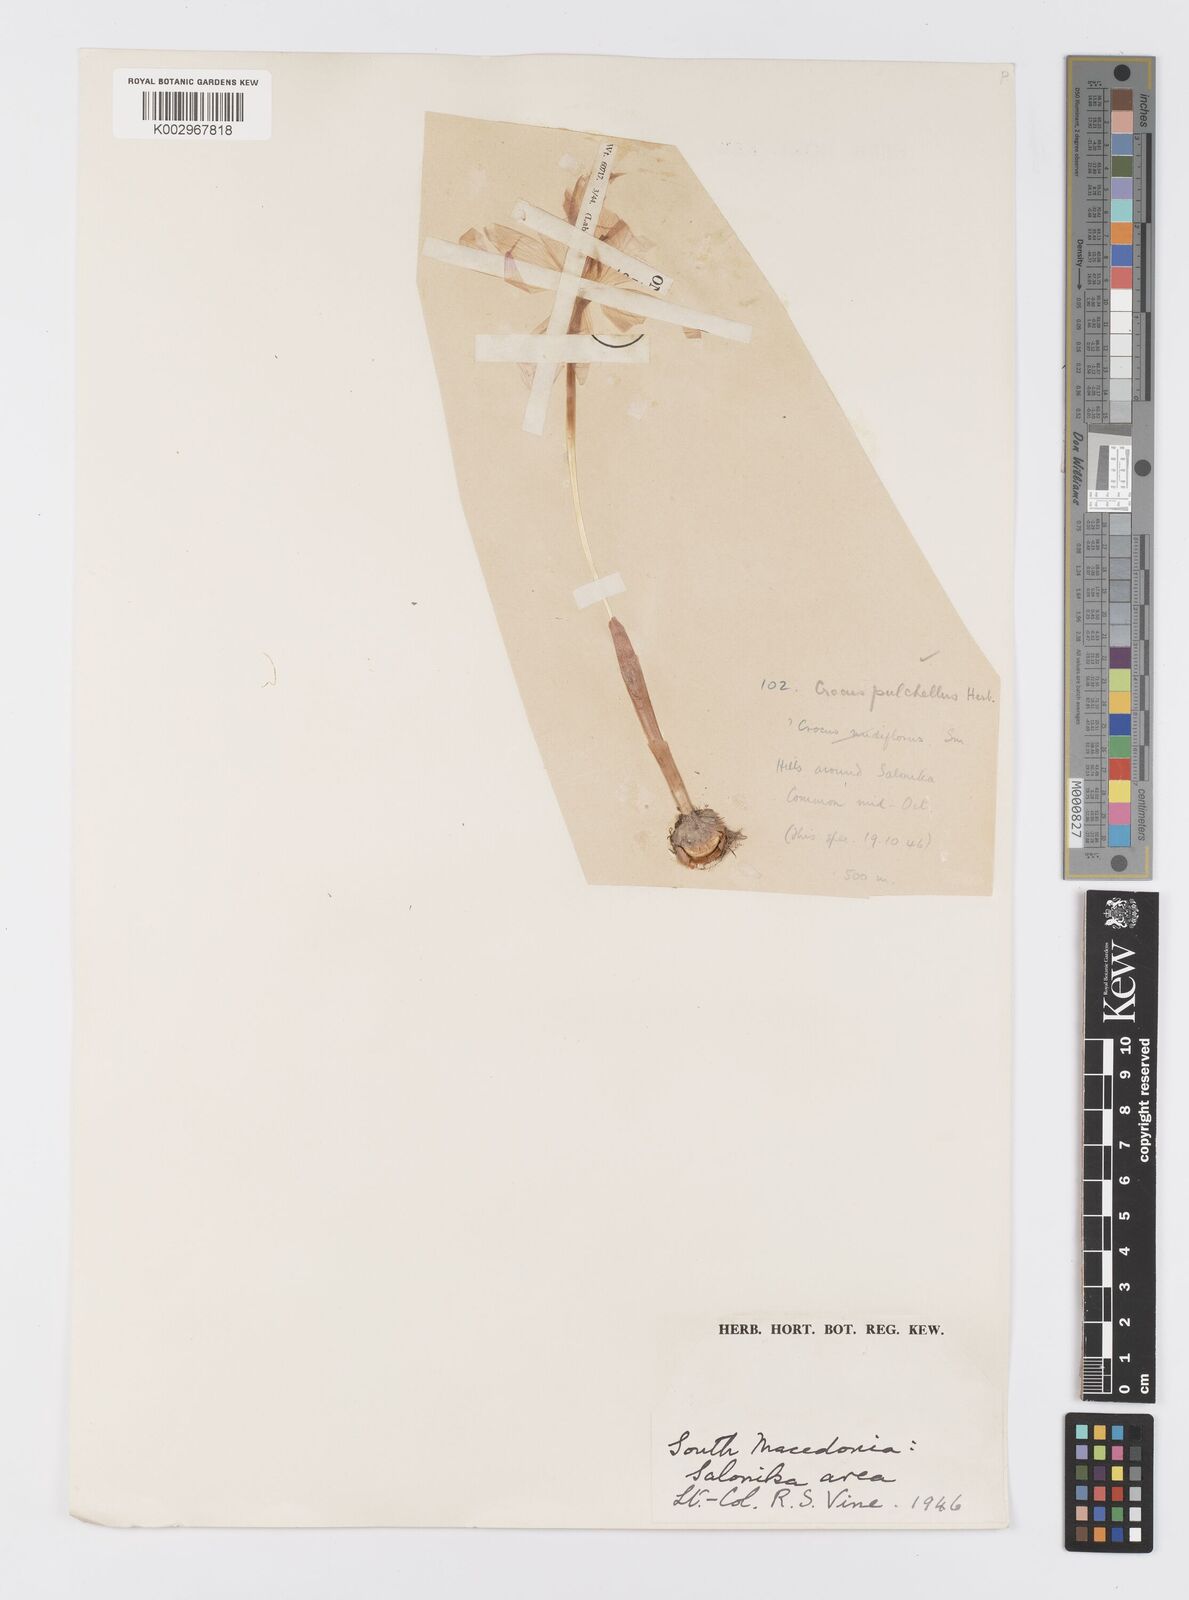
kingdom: Plantae
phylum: Tracheophyta
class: Liliopsida
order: Asparagales
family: Iridaceae
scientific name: Iridaceae
